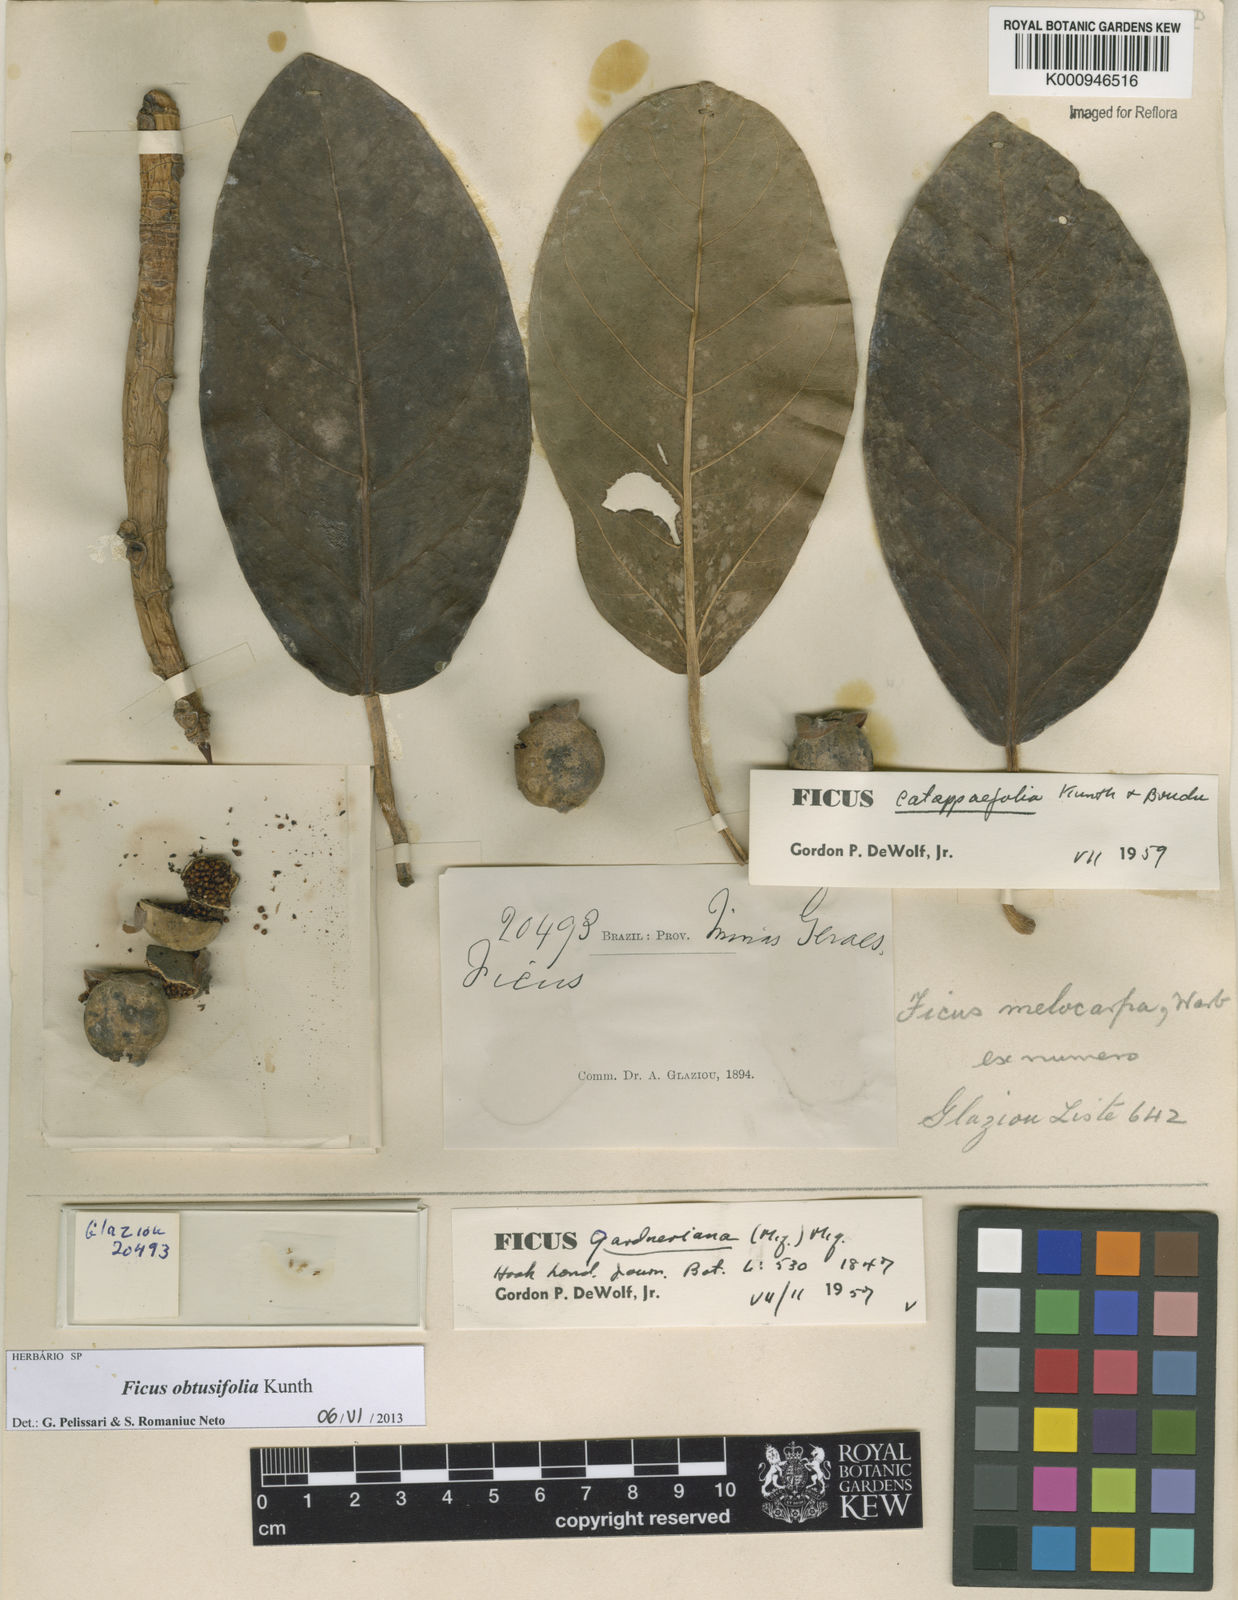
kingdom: Plantae
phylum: Tracheophyta
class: Magnoliopsida
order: Rosales
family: Moraceae
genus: Ficus
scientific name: Ficus obtusifolia
